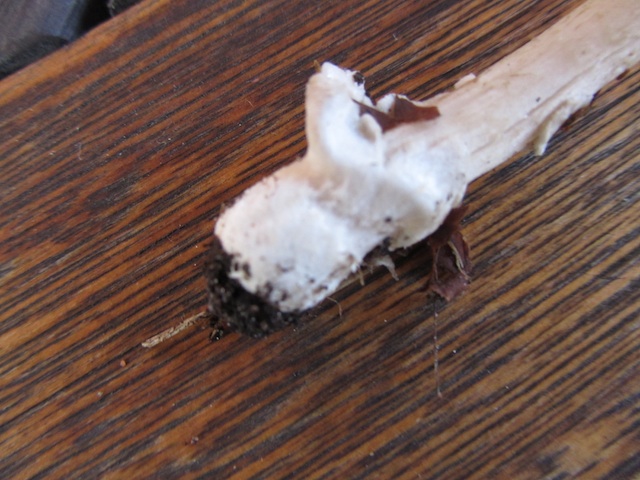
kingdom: Fungi
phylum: Basidiomycota
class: Agaricomycetes
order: Agaricales
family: Amanitaceae
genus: Amanita
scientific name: Amanita fulva
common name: brun kam-fluesvamp
